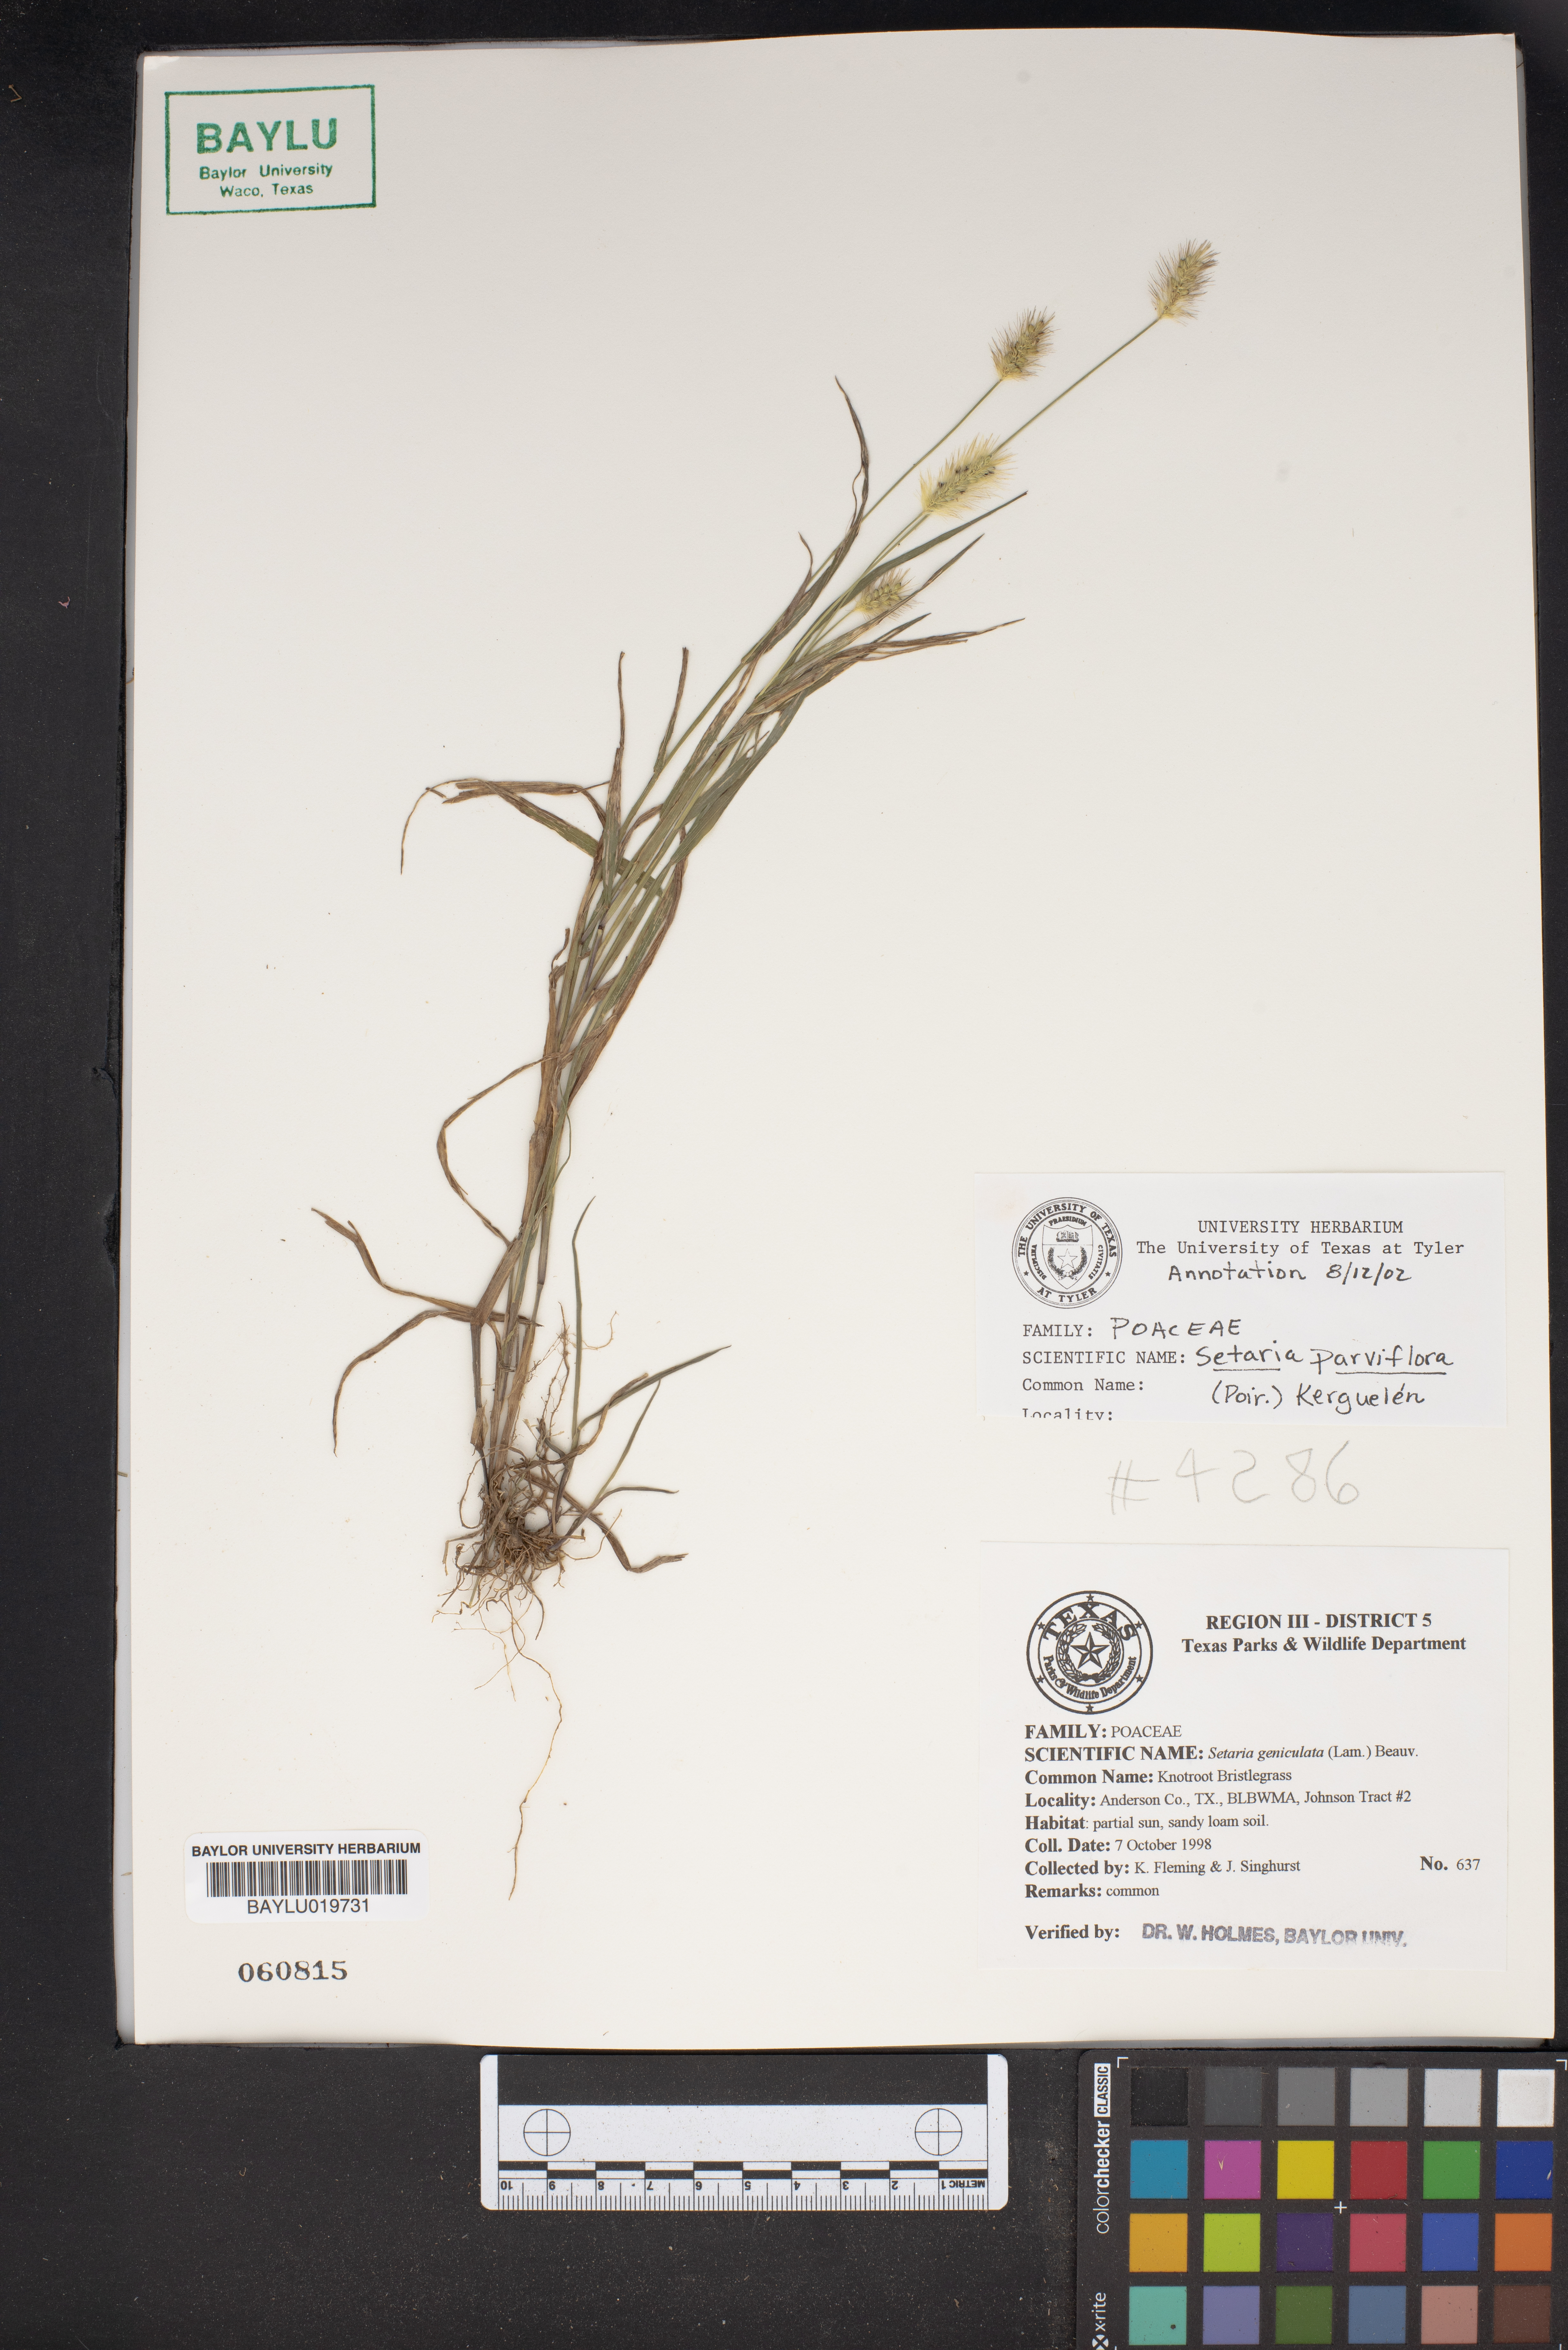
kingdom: Plantae
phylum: Tracheophyta
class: Liliopsida
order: Poales
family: Poaceae
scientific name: Poaceae
